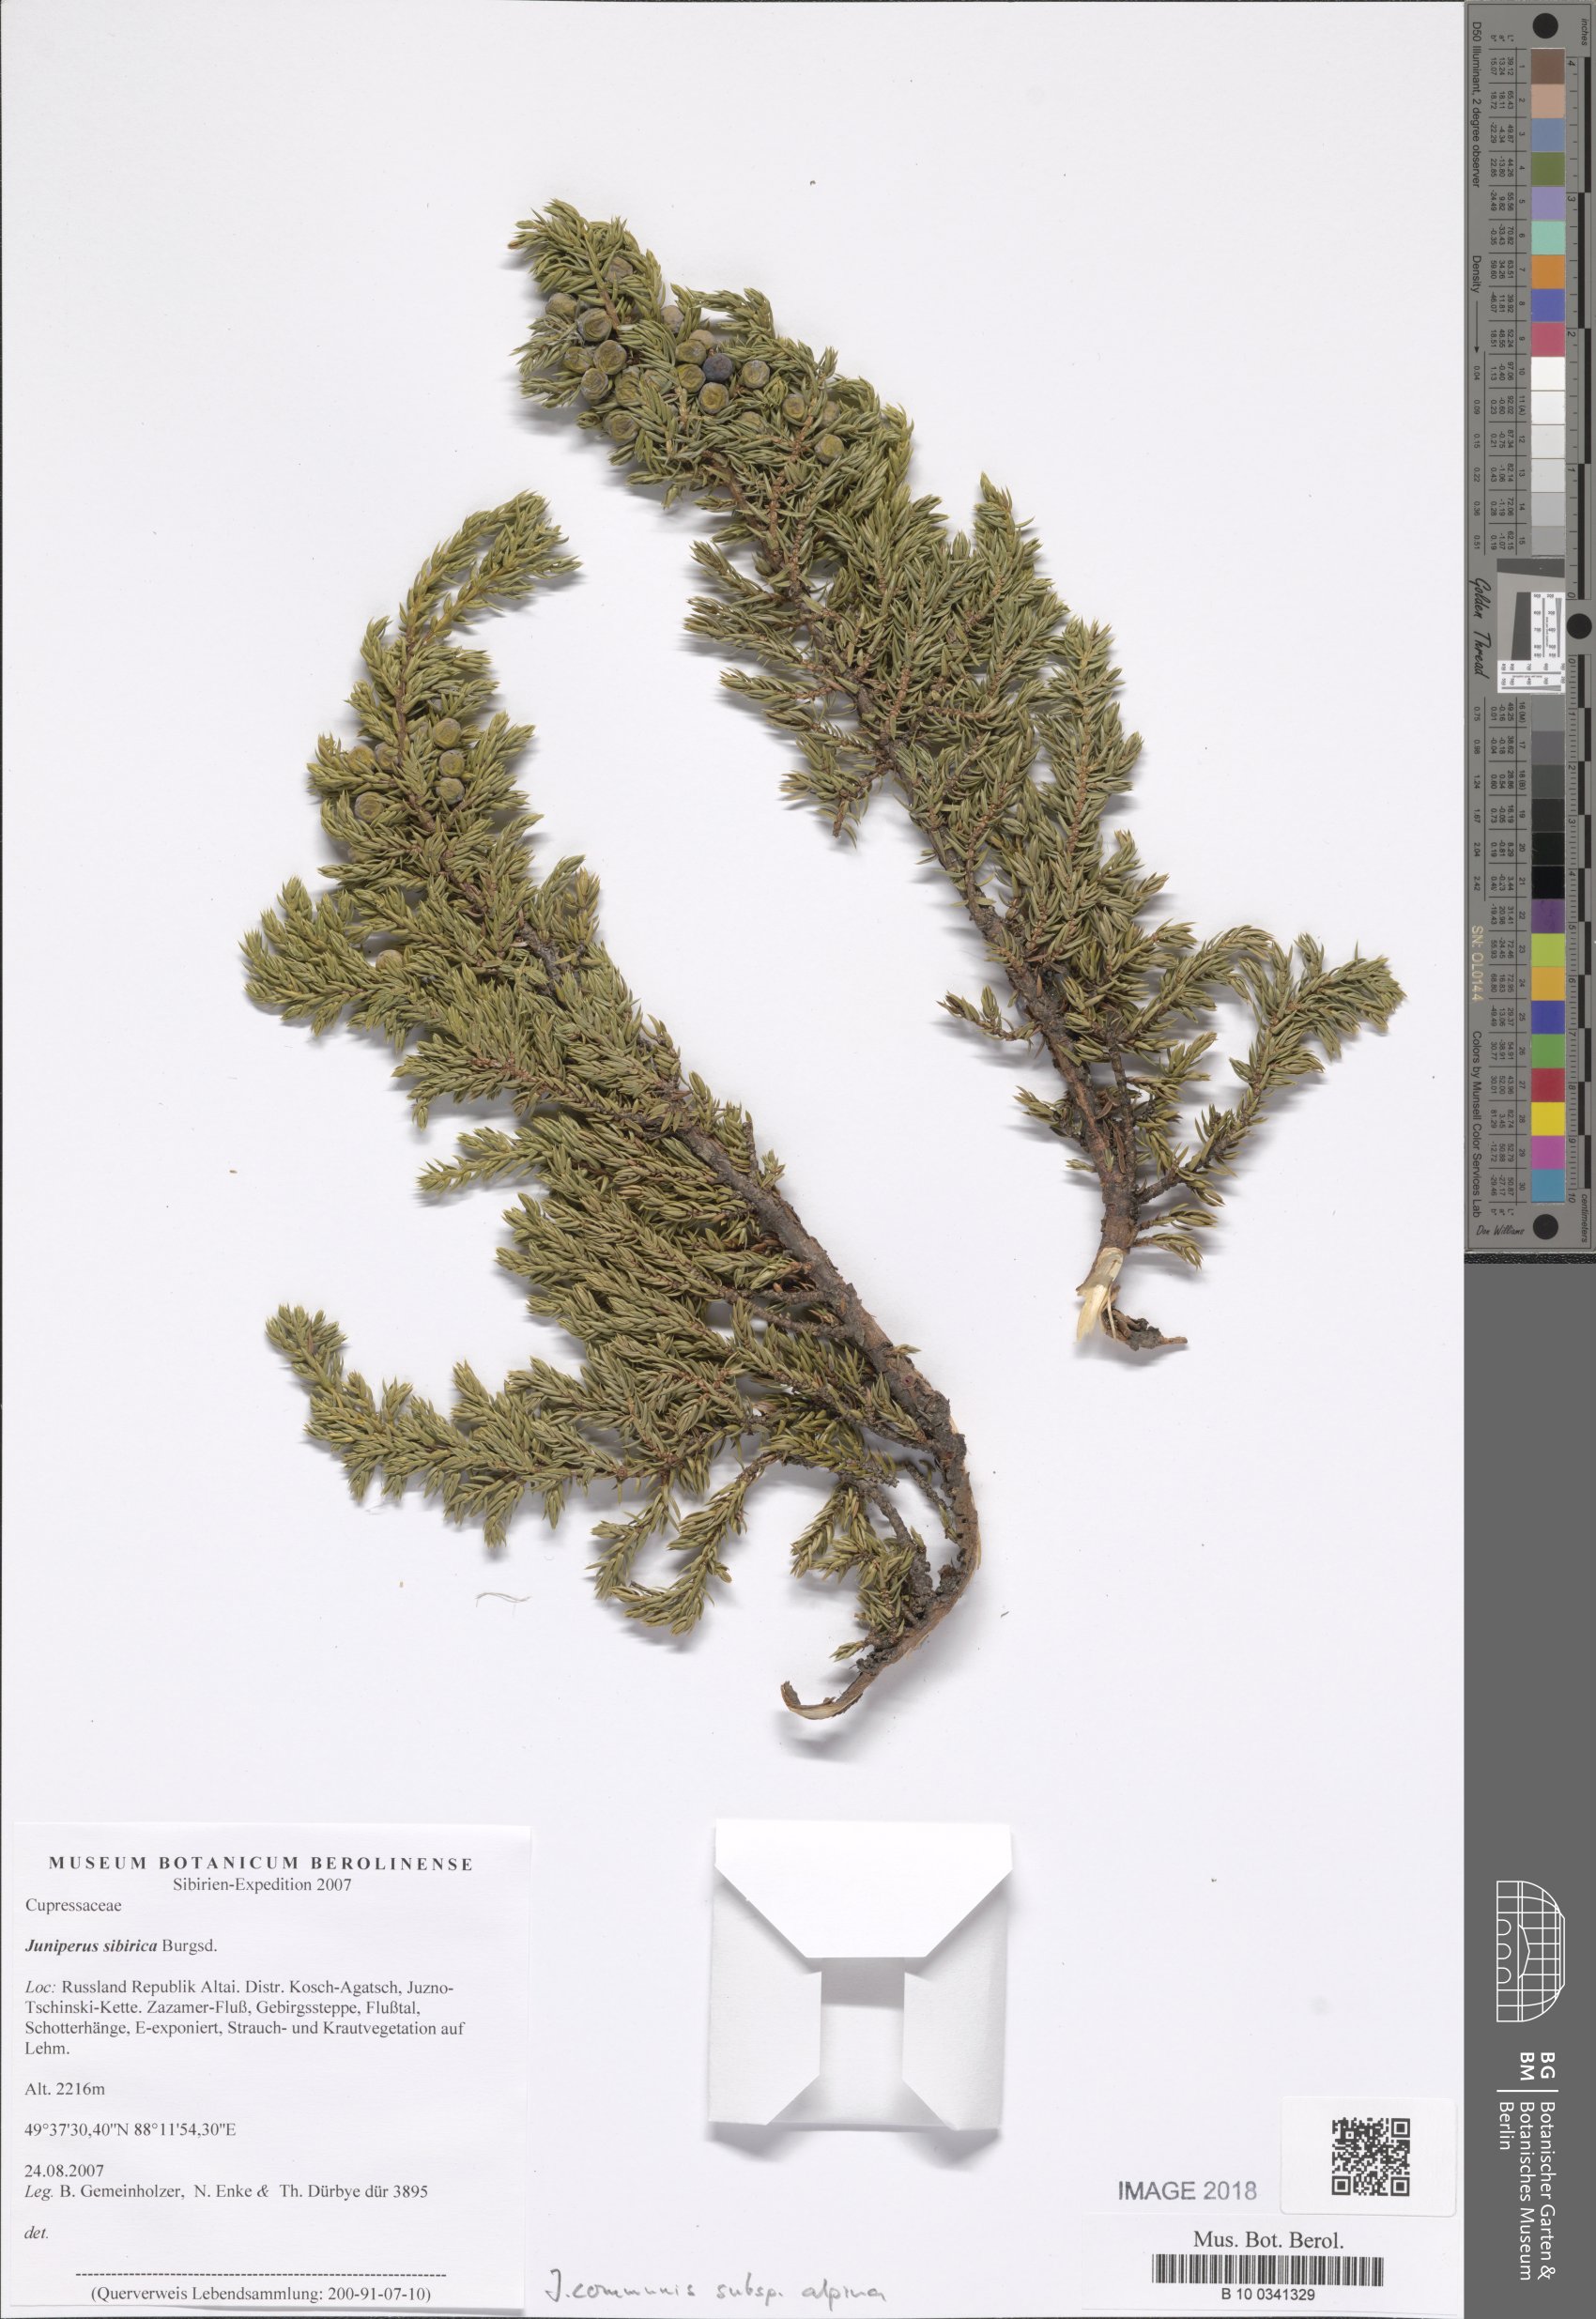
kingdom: Plantae
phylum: Tracheophyta
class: Pinopsida
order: Pinales
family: Cupressaceae
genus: Juniperus
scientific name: Juniperus communis
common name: Common juniper
